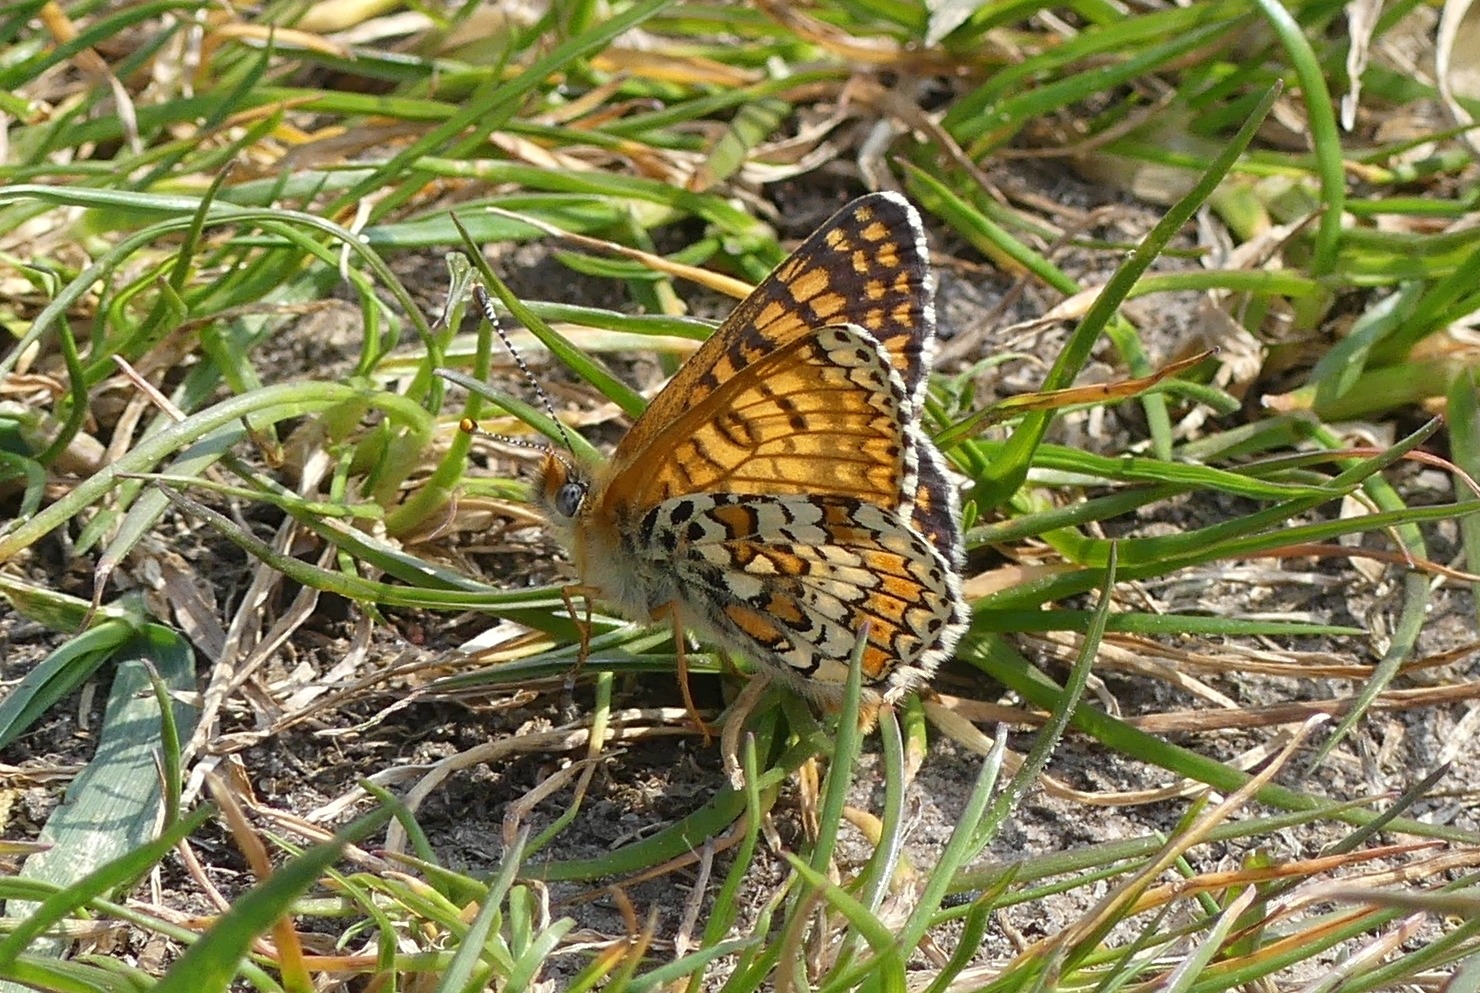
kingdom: Animalia
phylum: Arthropoda
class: Insecta
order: Lepidoptera
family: Nymphalidae
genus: Melitaea
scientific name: Melitaea cinxia
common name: Okkergul pletvinge
